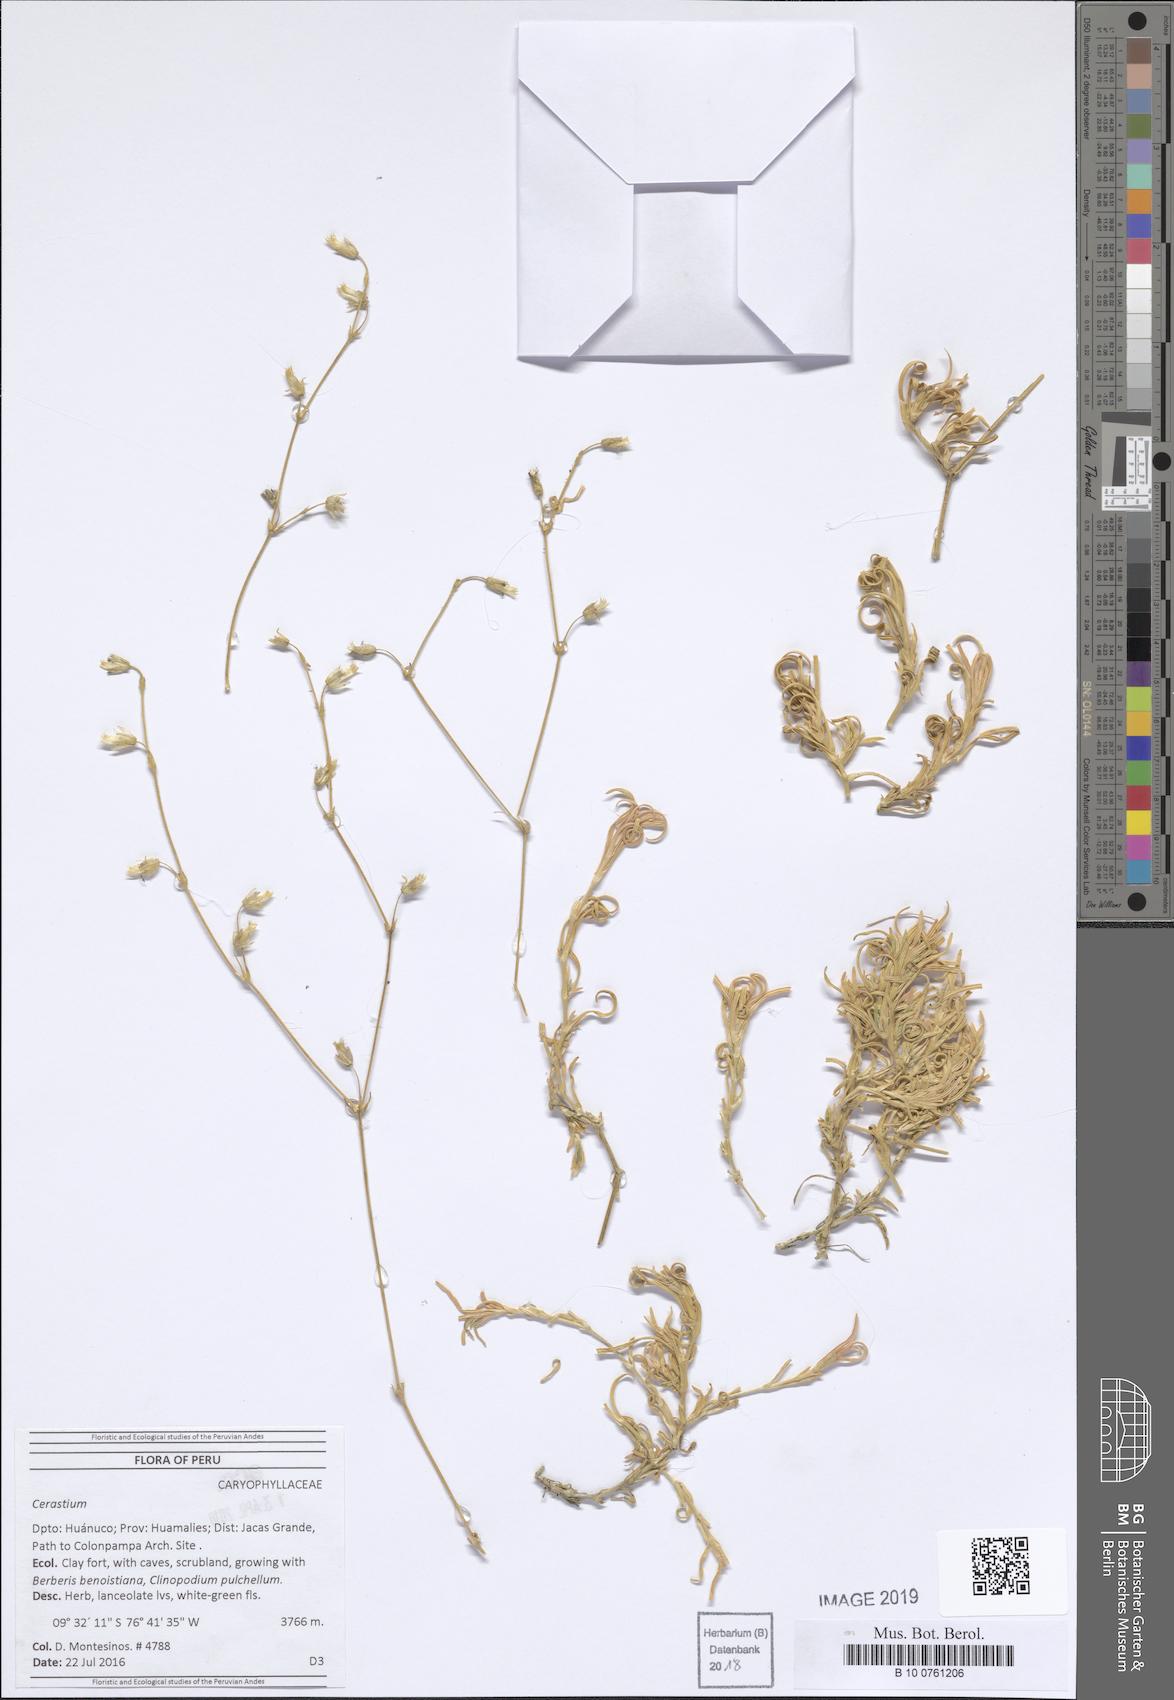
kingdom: Plantae
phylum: Tracheophyta
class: Magnoliopsida
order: Caryophyllales
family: Caryophyllaceae
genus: Cerastium
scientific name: Cerastium
